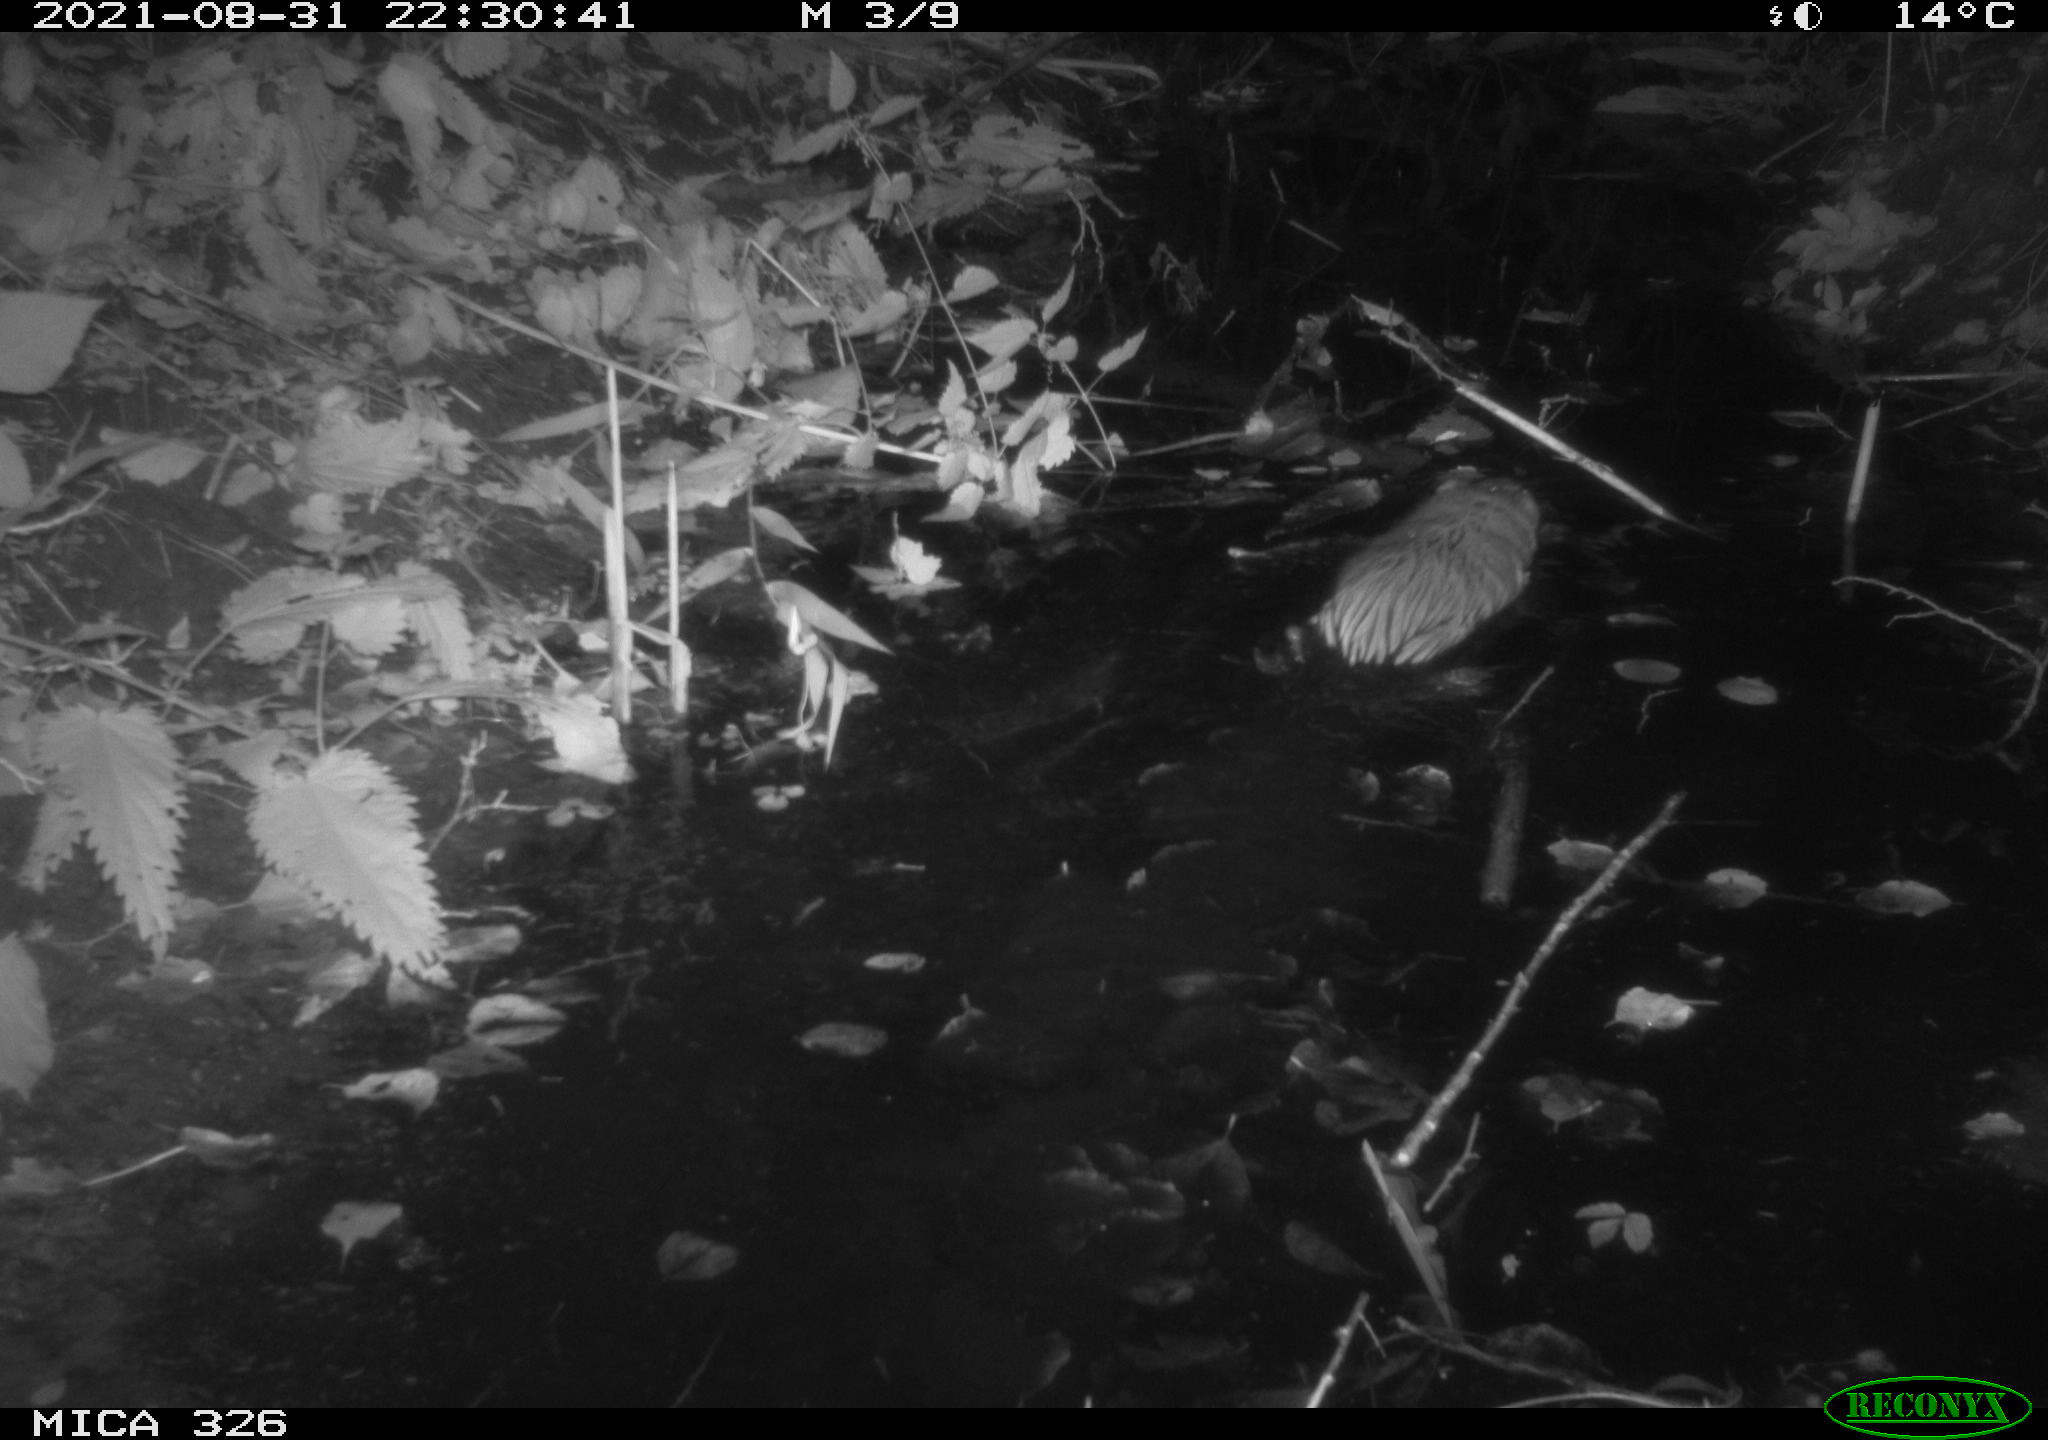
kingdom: Animalia
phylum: Chordata
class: Mammalia
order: Rodentia
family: Cricetidae
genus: Ondatra
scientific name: Ondatra zibethicus
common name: Muskrat
